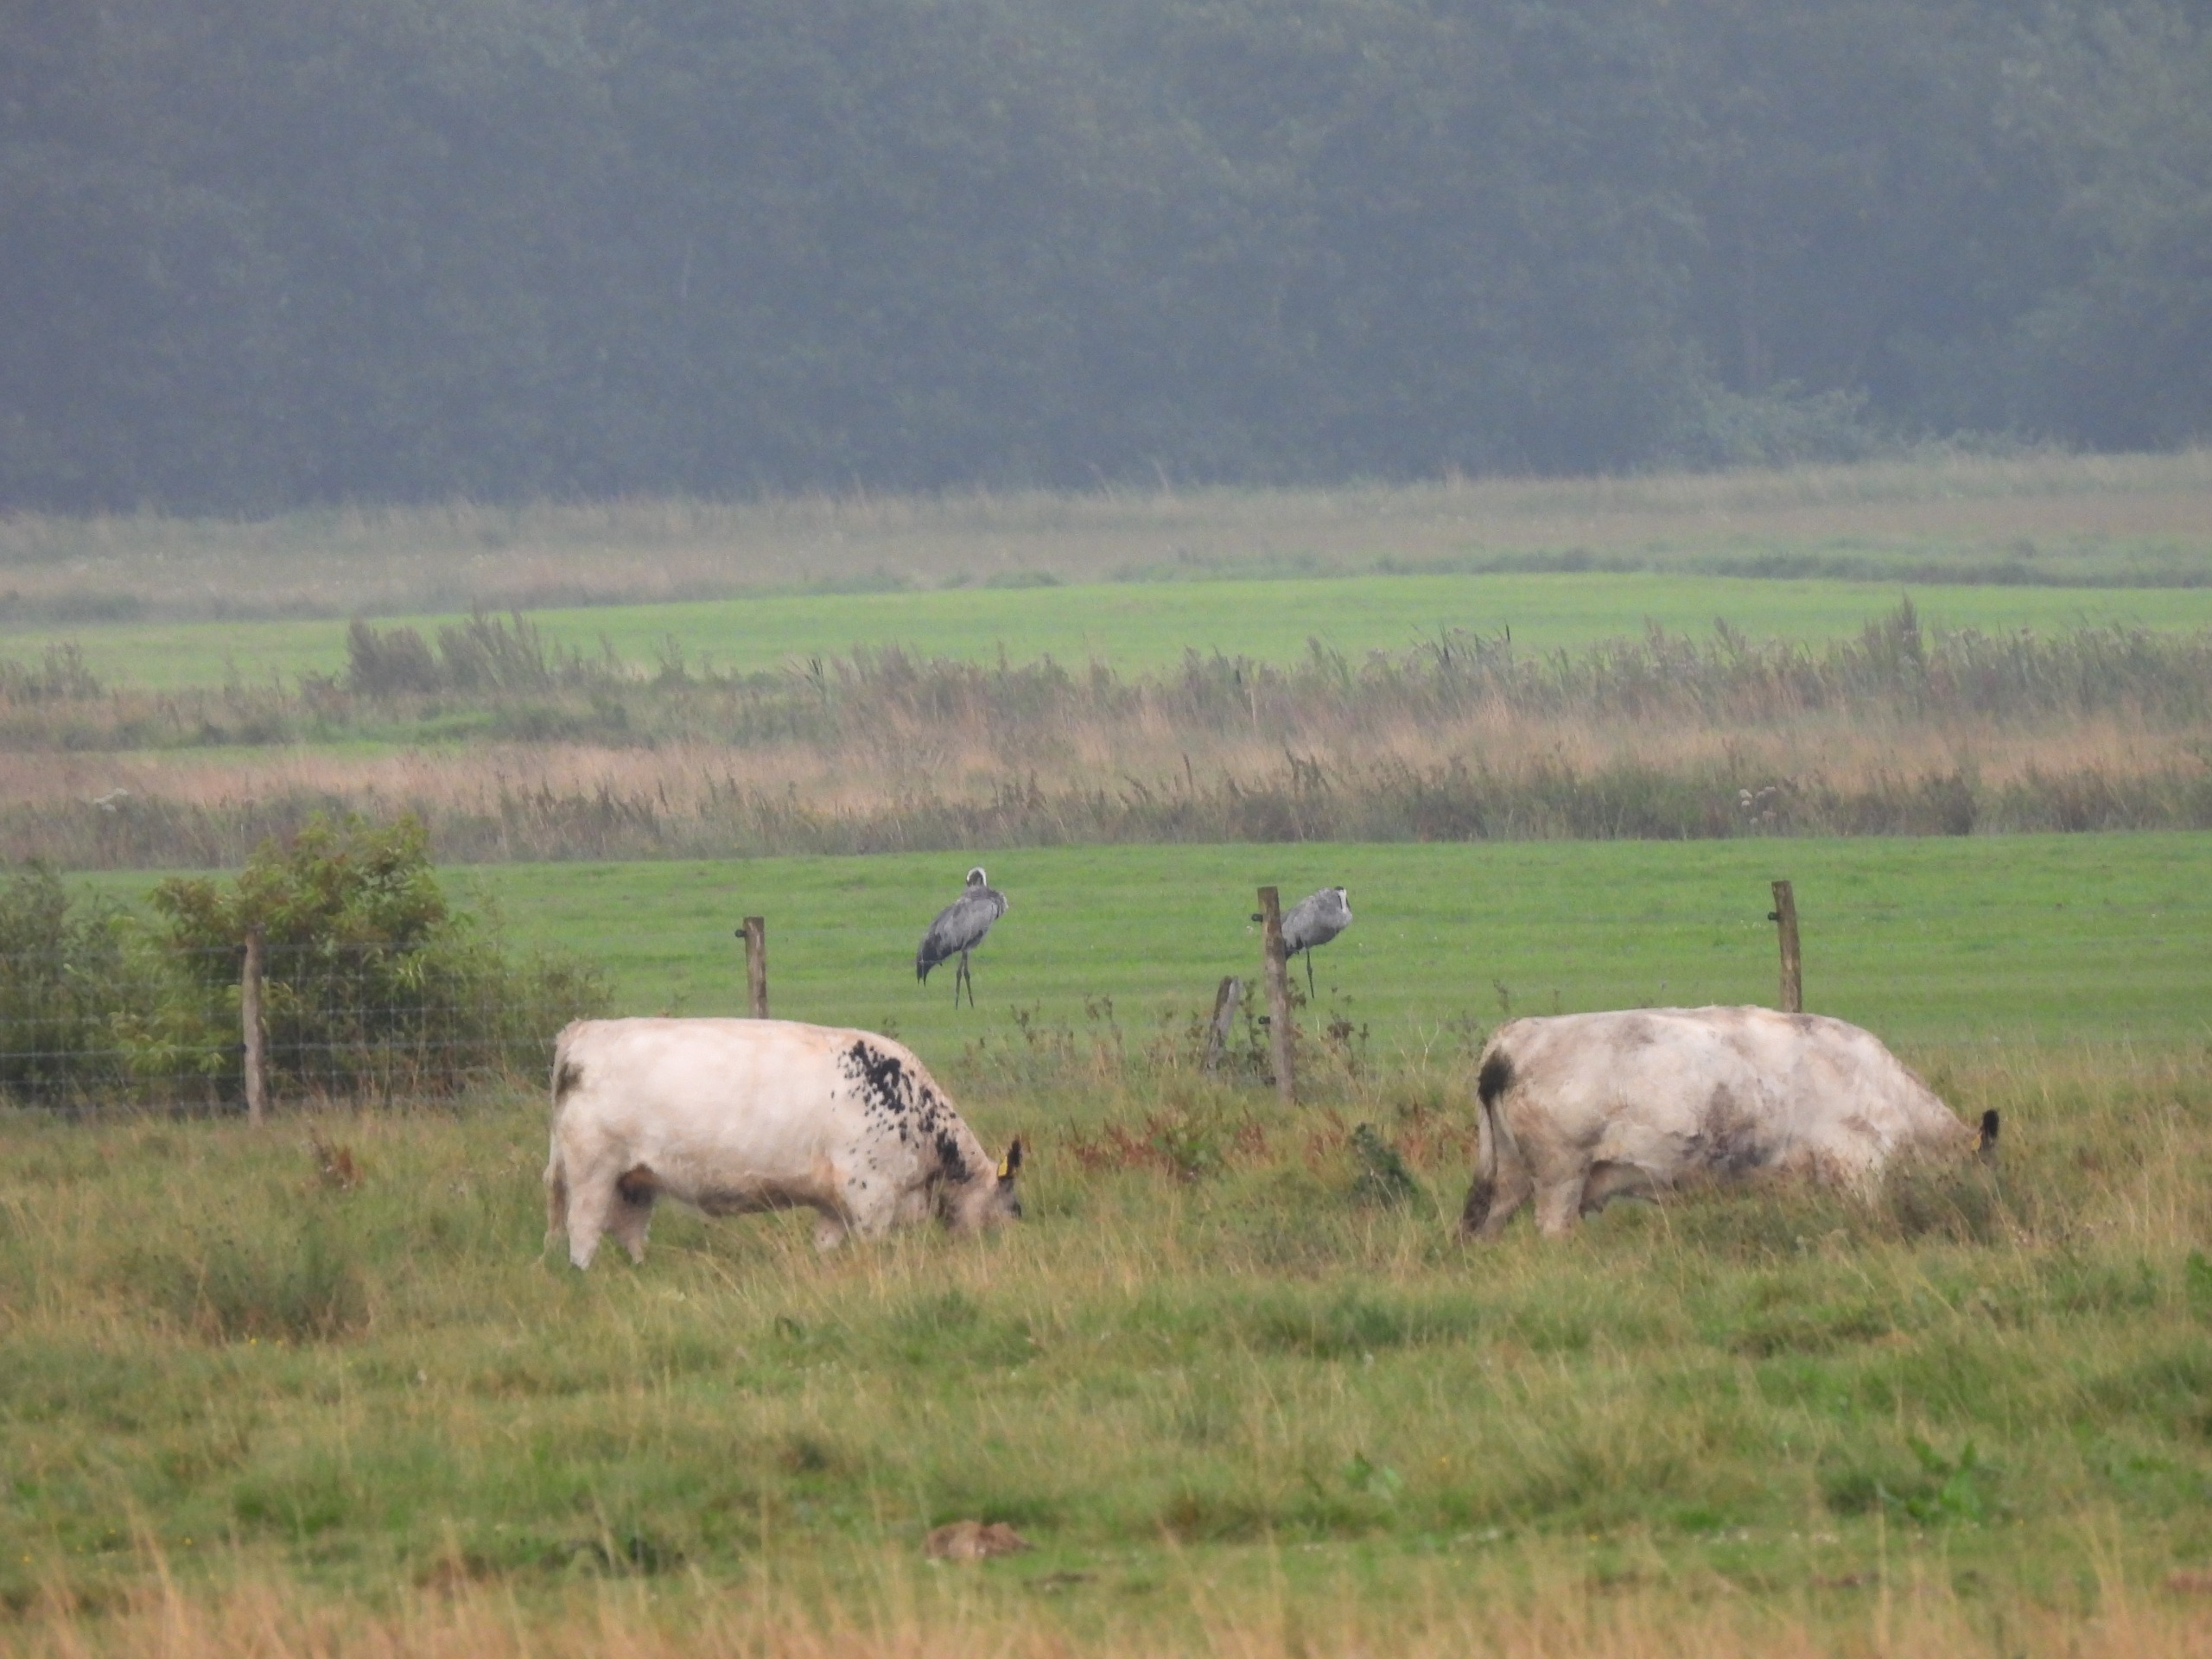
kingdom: Animalia
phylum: Chordata
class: Aves
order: Gruiformes
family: Gruidae
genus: Grus
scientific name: Grus grus
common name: Trane
